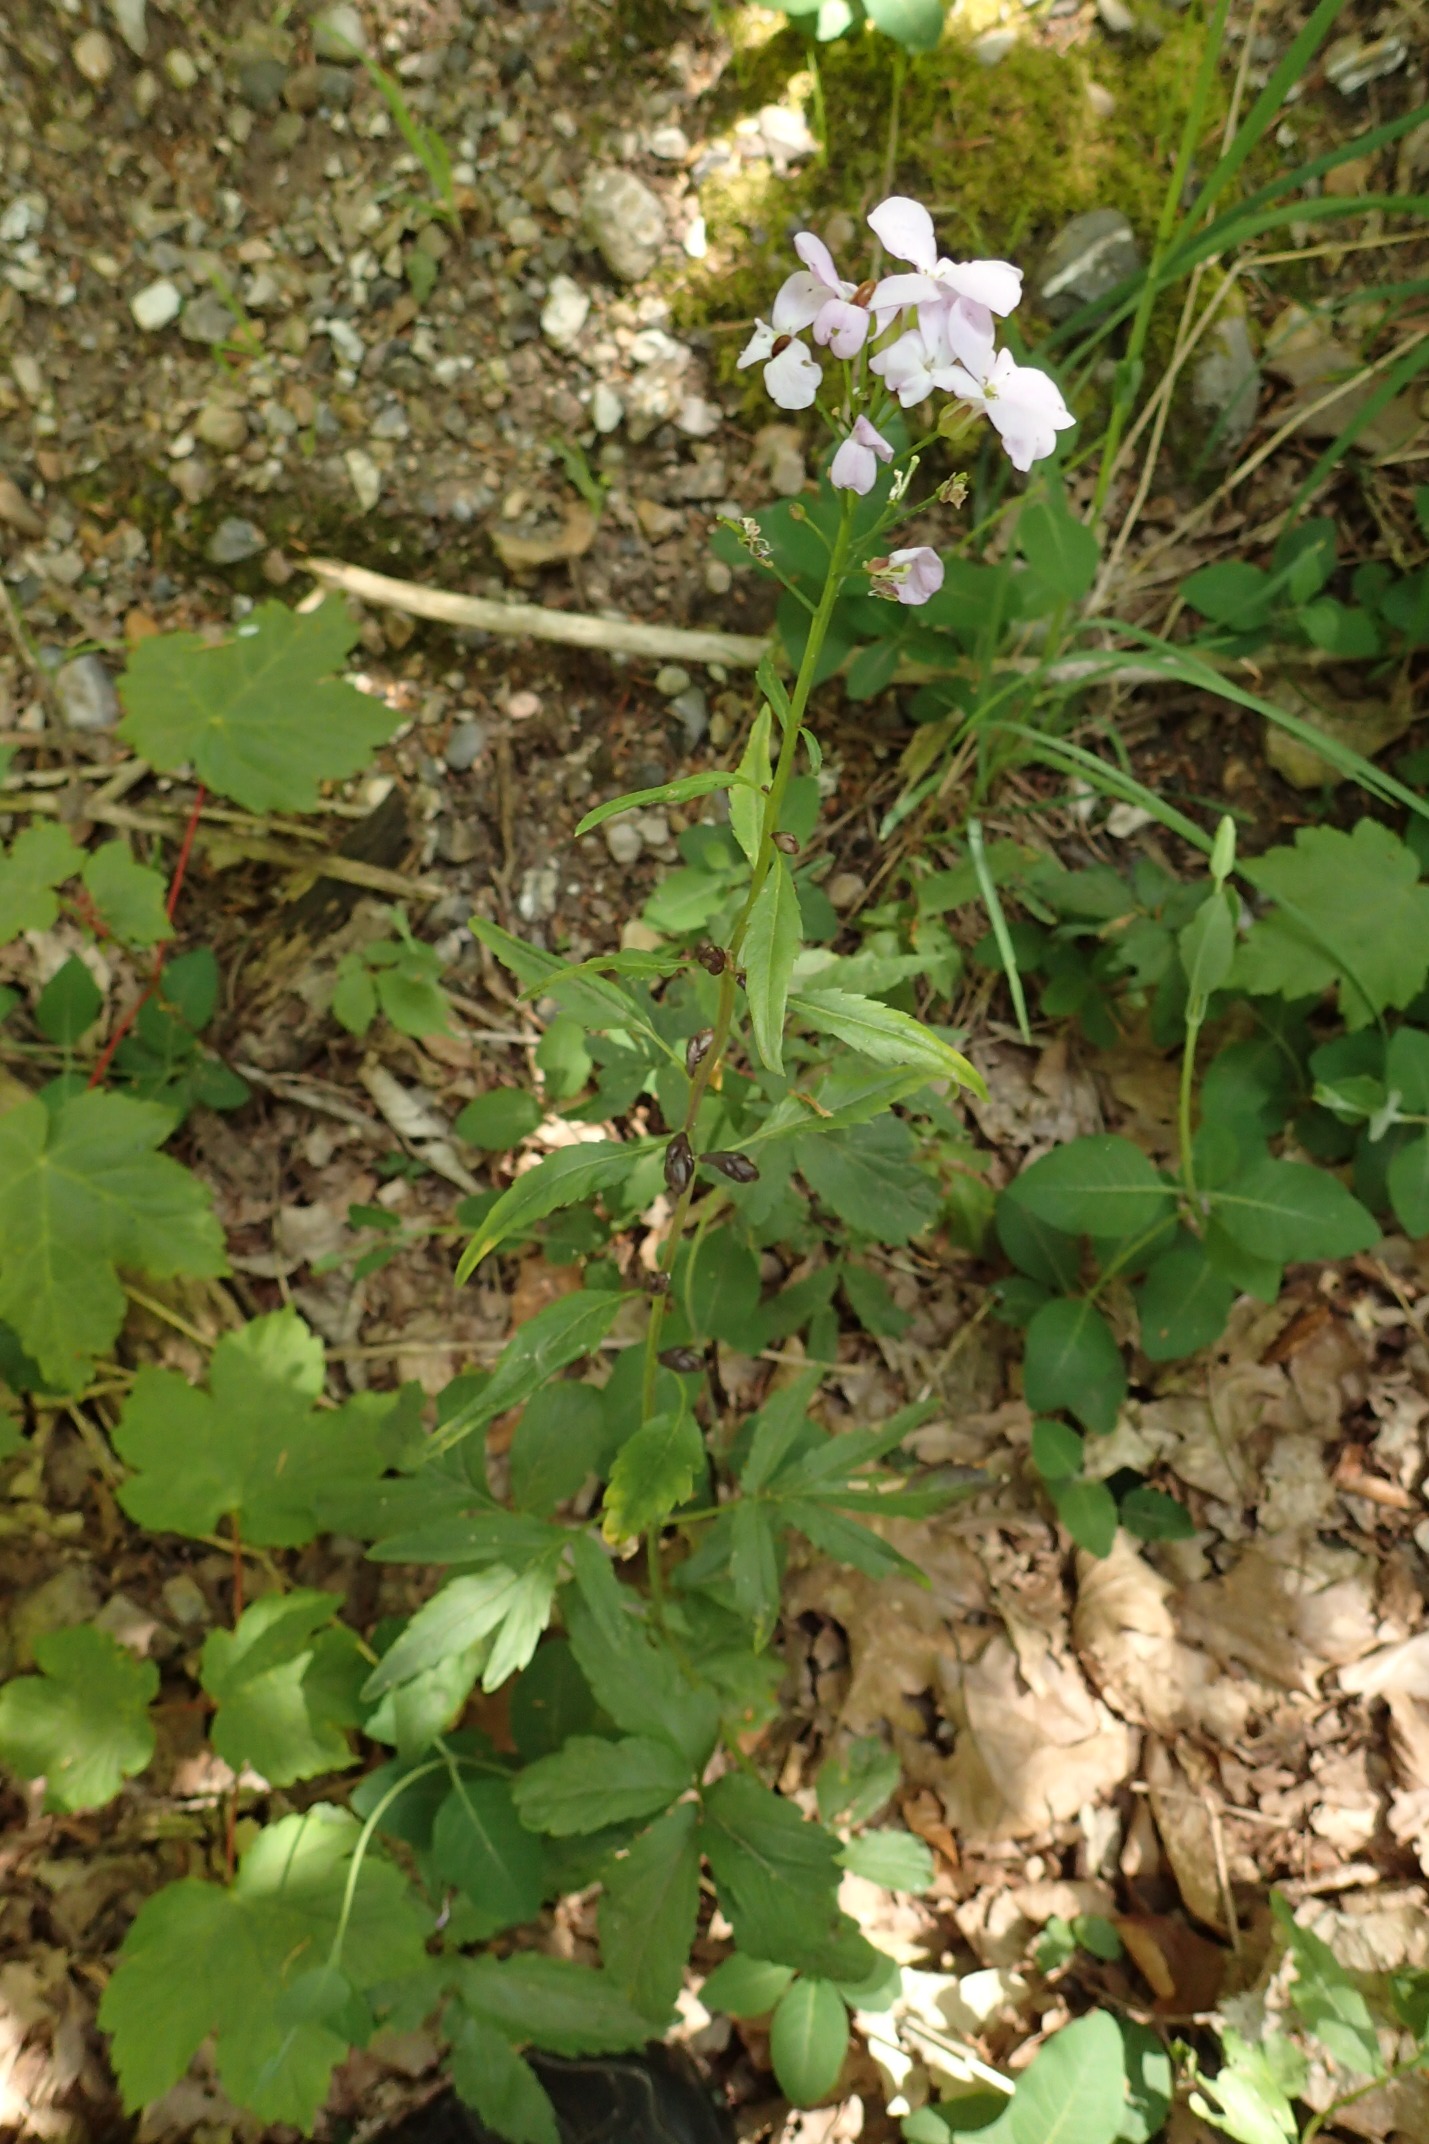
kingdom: Plantae
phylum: Tracheophyta
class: Magnoliopsida
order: Brassicales
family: Brassicaceae
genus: Cardamine
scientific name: Cardamine bulbifera
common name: Tandrod
